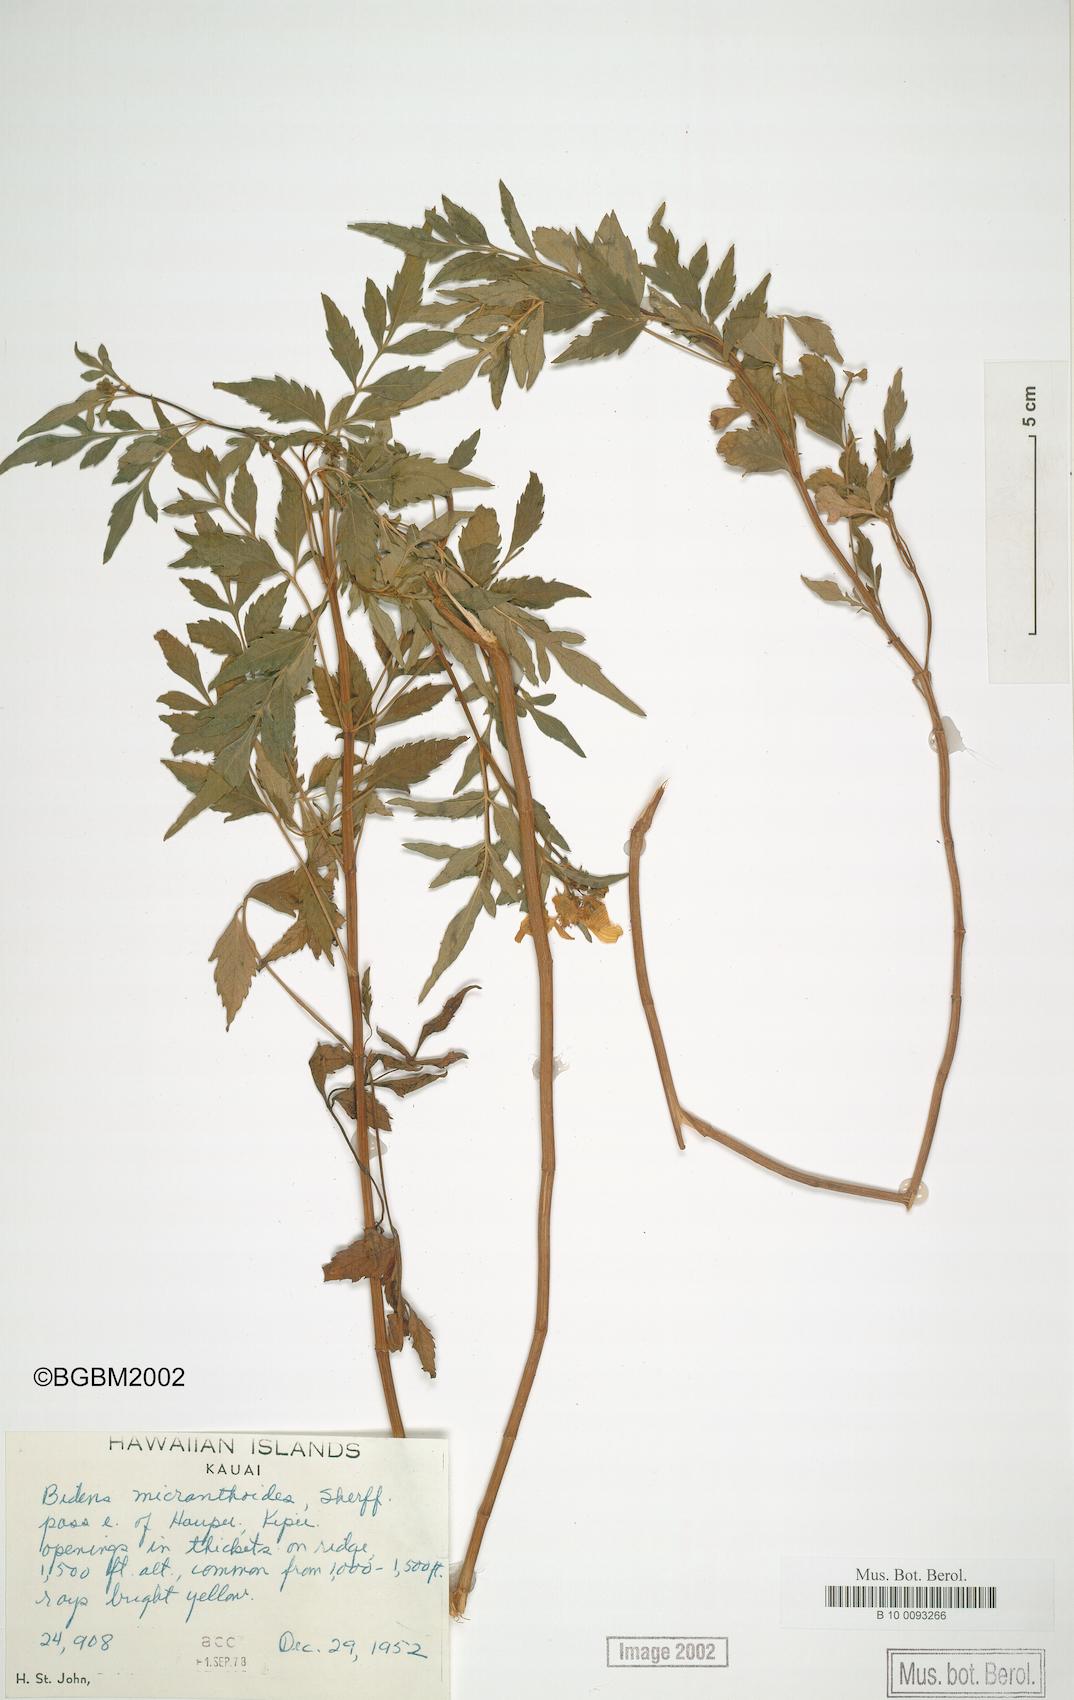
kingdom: Plantae
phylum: Tracheophyta
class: Magnoliopsida
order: Asterales
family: Asteraceae
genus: Bidens
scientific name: Bidens sandvicensis
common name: Shrubland beggarticks
